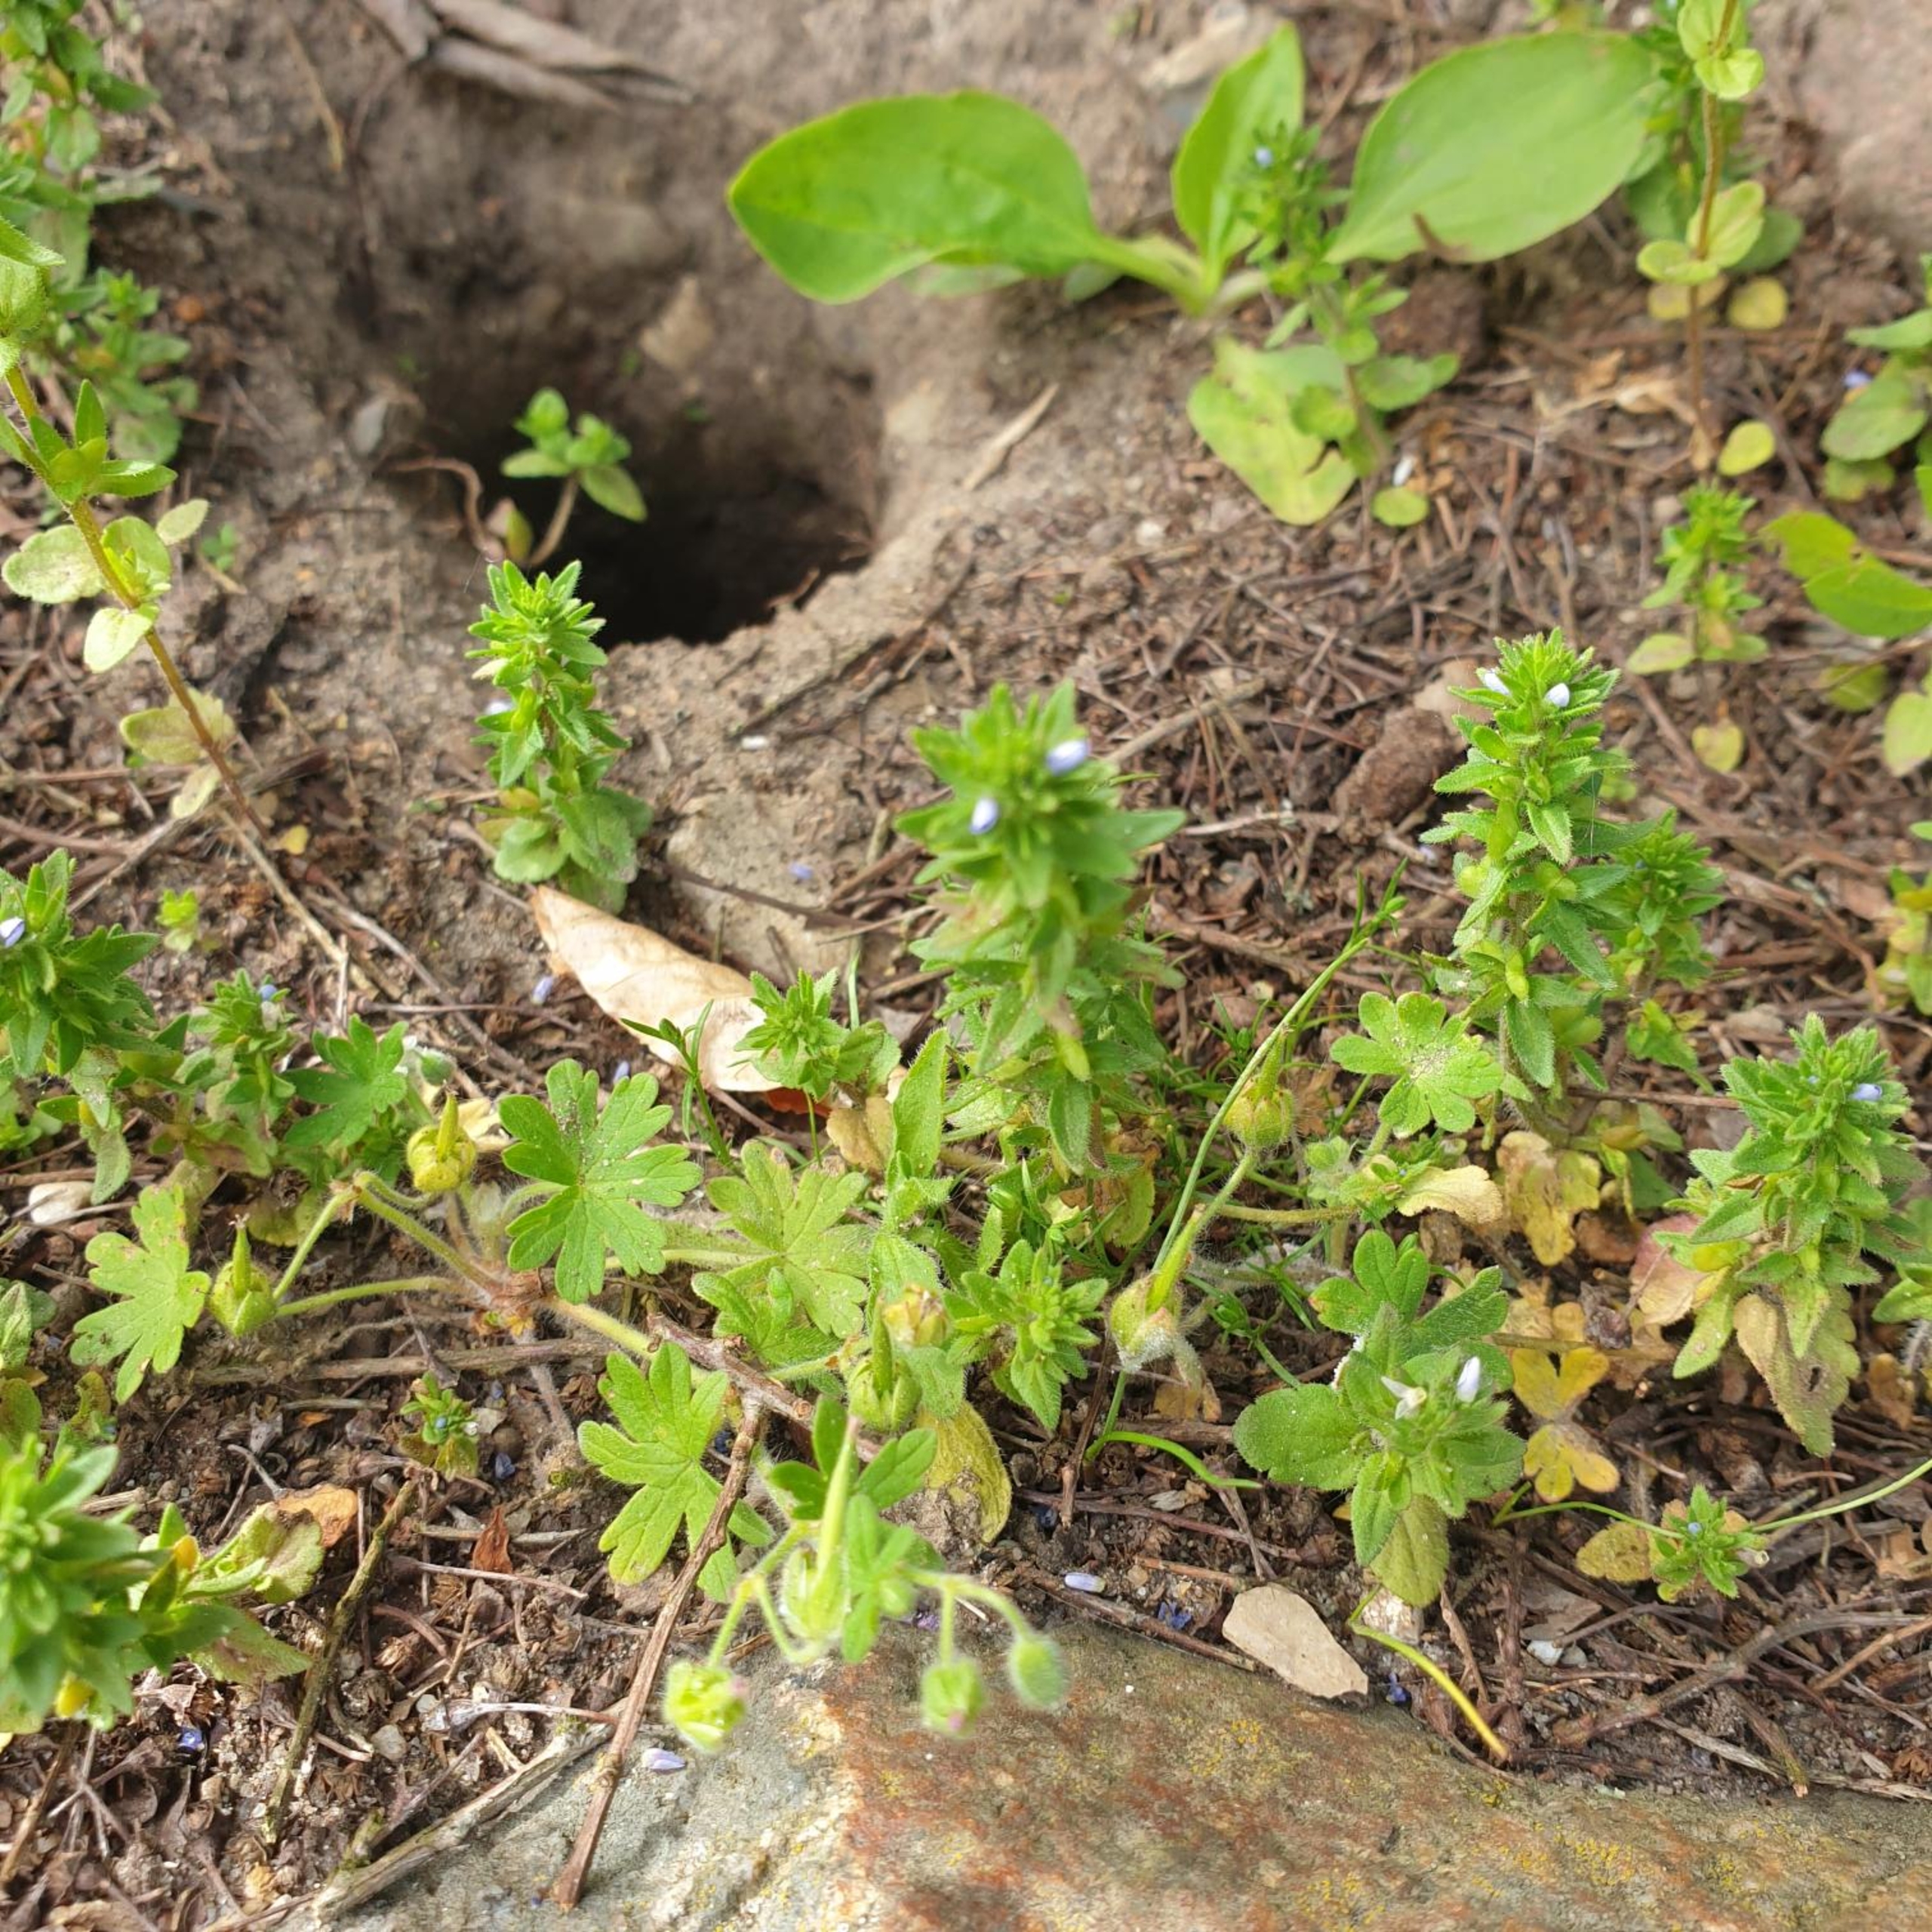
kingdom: Plantae
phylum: Tracheophyta
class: Magnoliopsida
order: Lamiales
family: Plantaginaceae
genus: Veronica
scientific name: Veronica arvensis
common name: Mark-ærenpris
